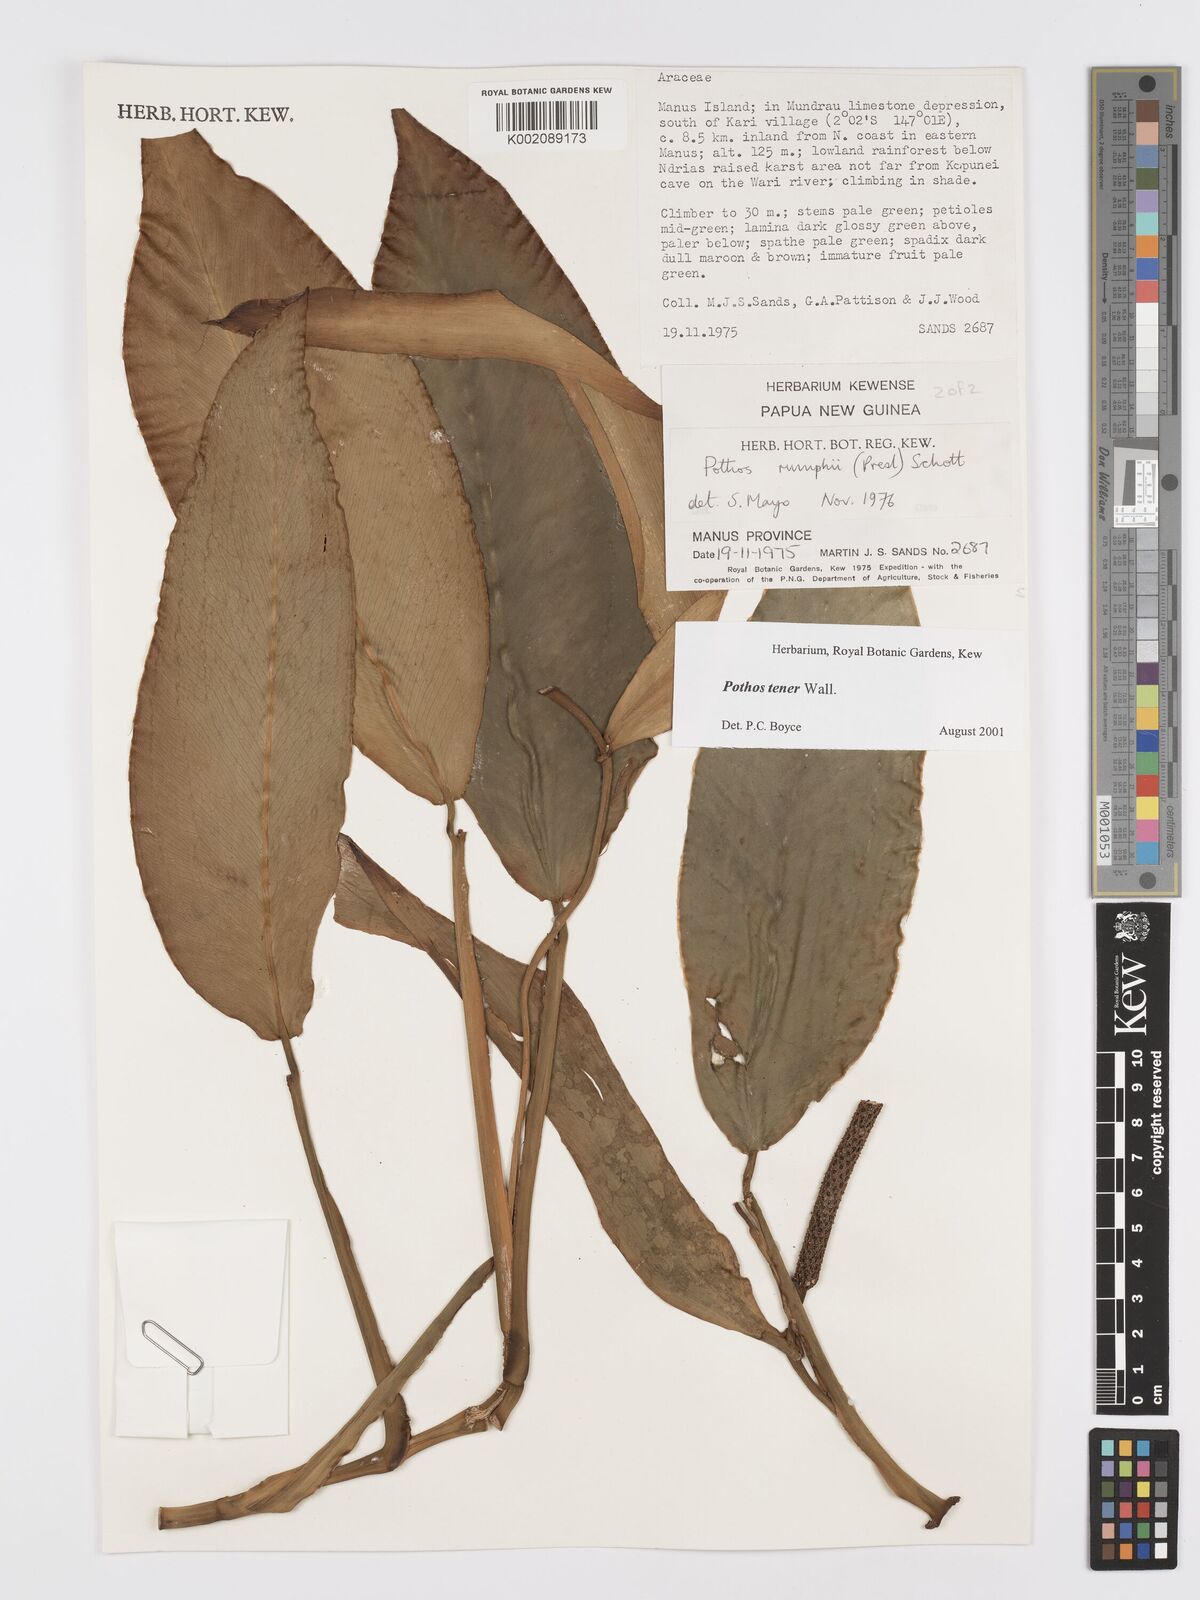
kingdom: Plantae
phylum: Tracheophyta
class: Liliopsida
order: Alismatales
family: Araceae
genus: Pothos
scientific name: Pothos tener
